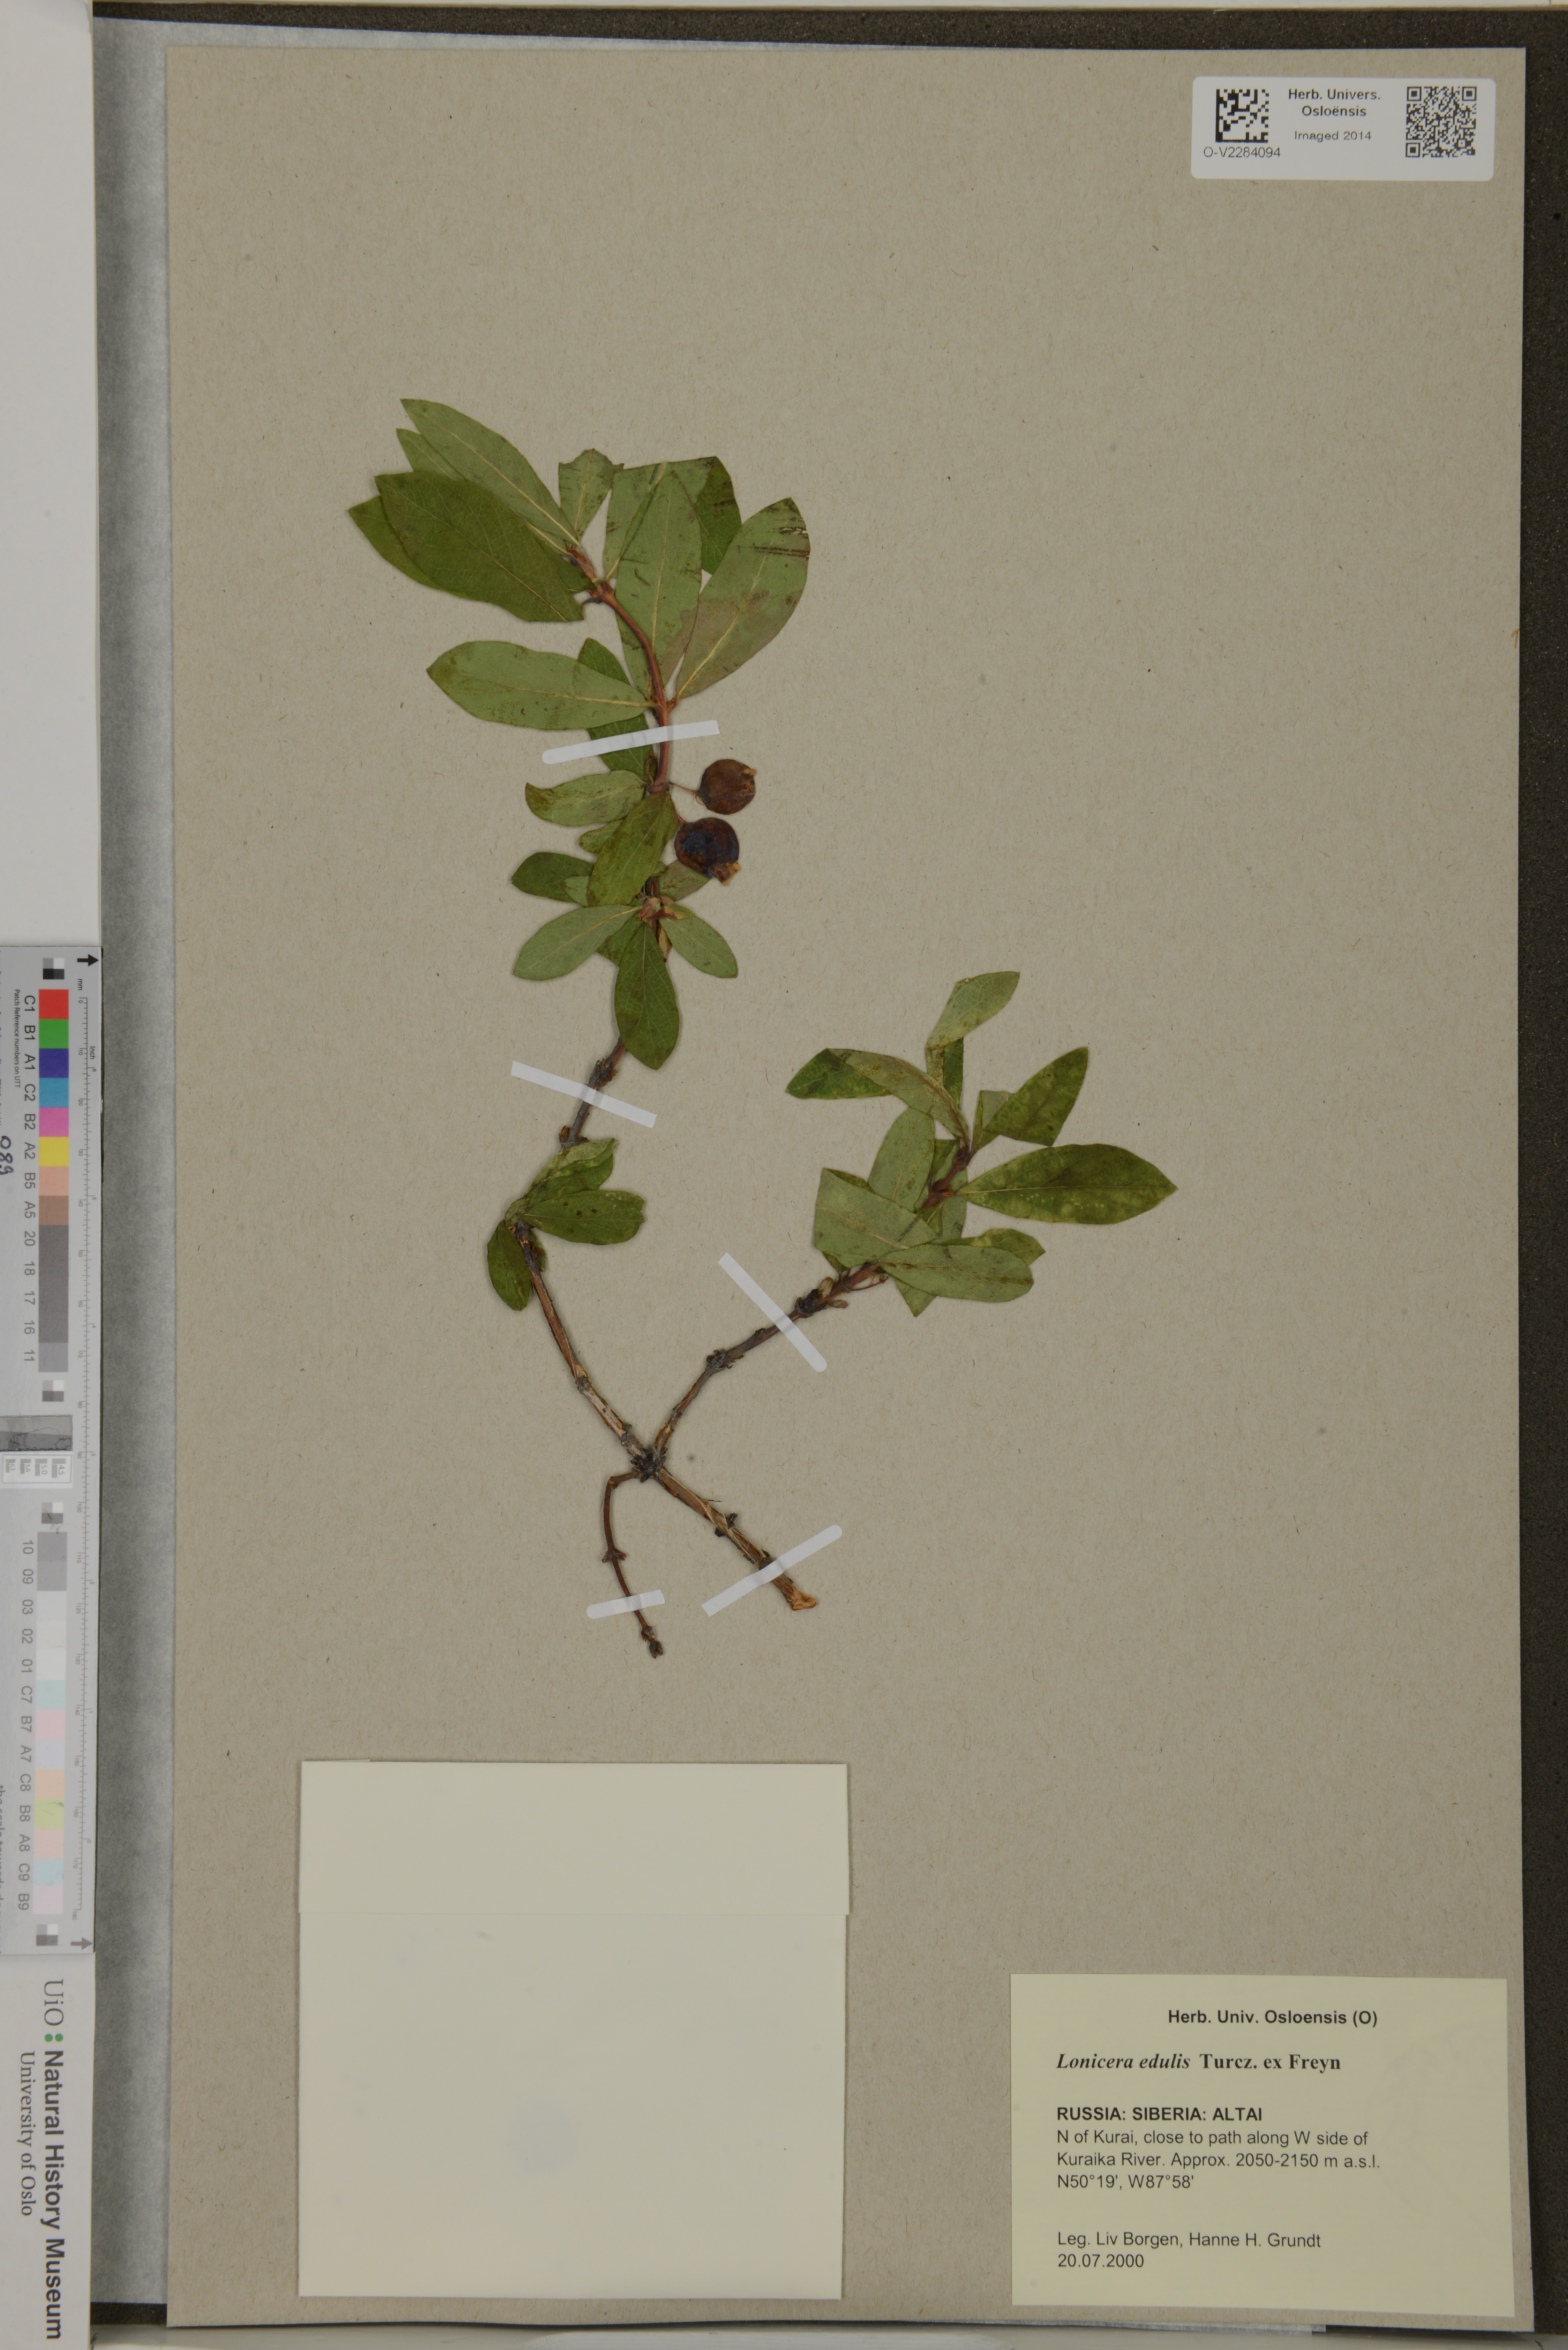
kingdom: Plantae
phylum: Tracheophyta
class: Magnoliopsida
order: Dipsacales
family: Caprifoliaceae
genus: Lonicera
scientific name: Lonicera edulis
